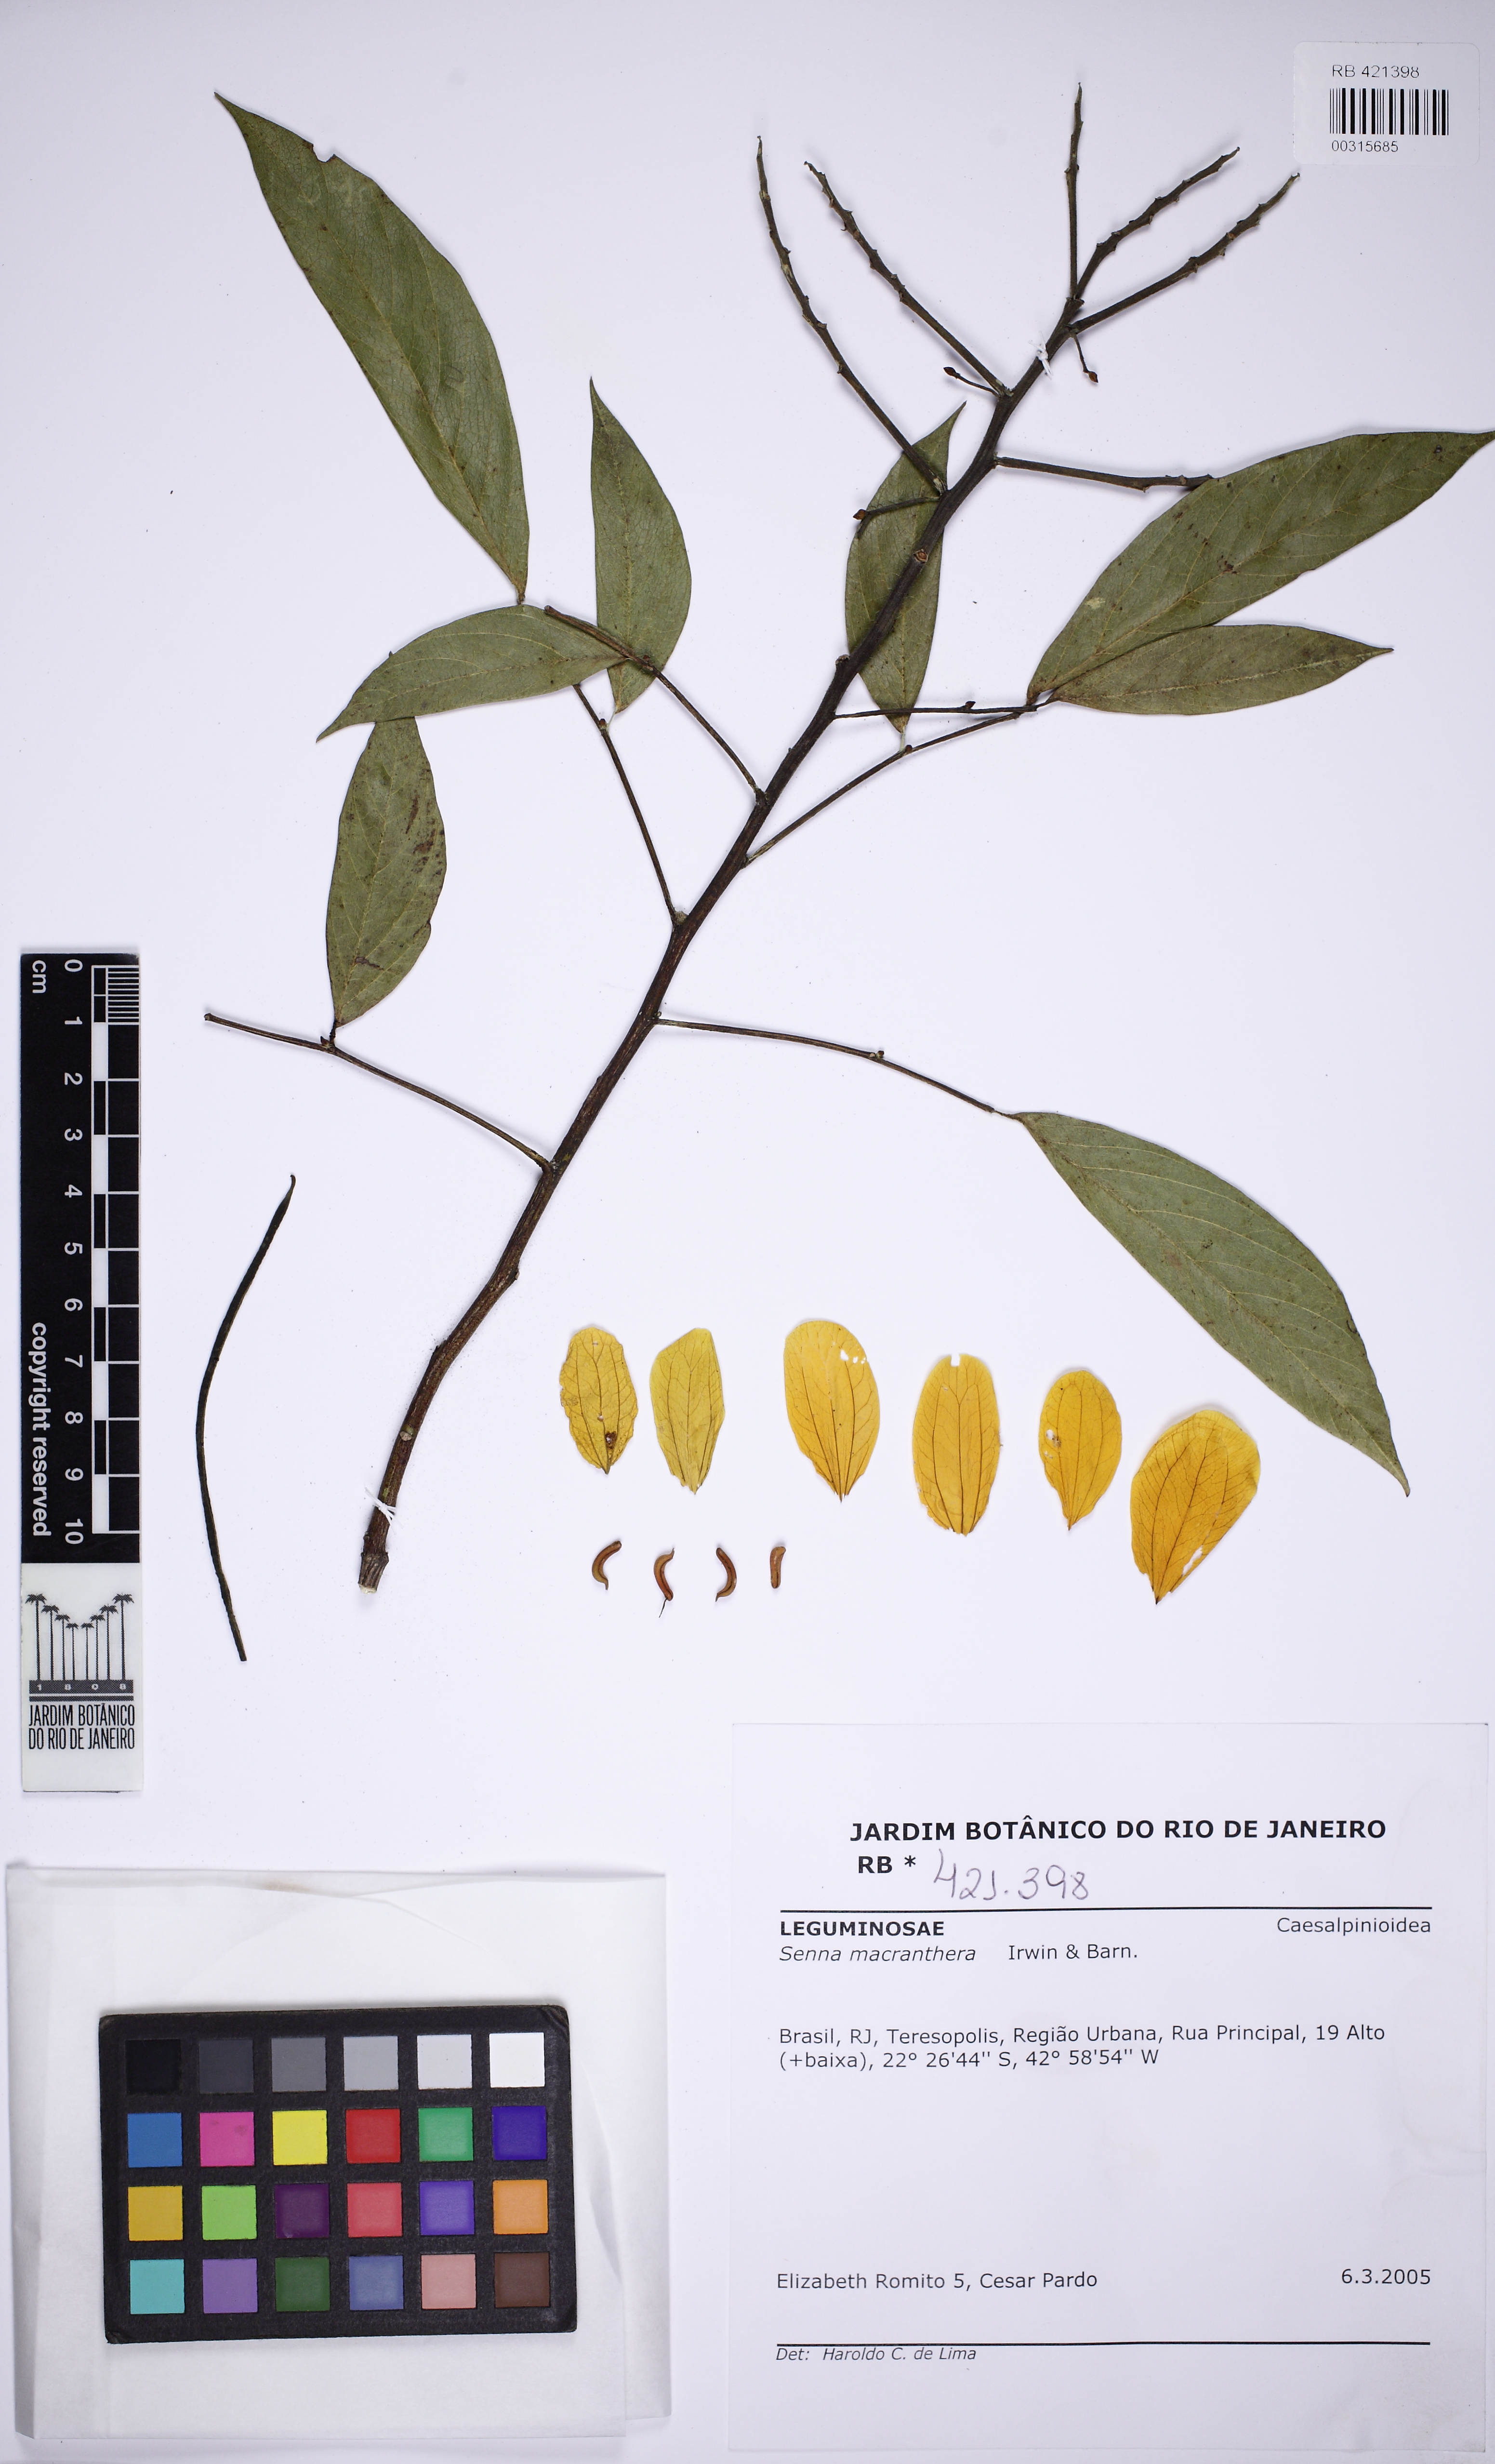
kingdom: Plantae
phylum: Tracheophyta
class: Magnoliopsida
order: Fabales
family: Fabaceae
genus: Senna
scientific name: Senna macranthera
